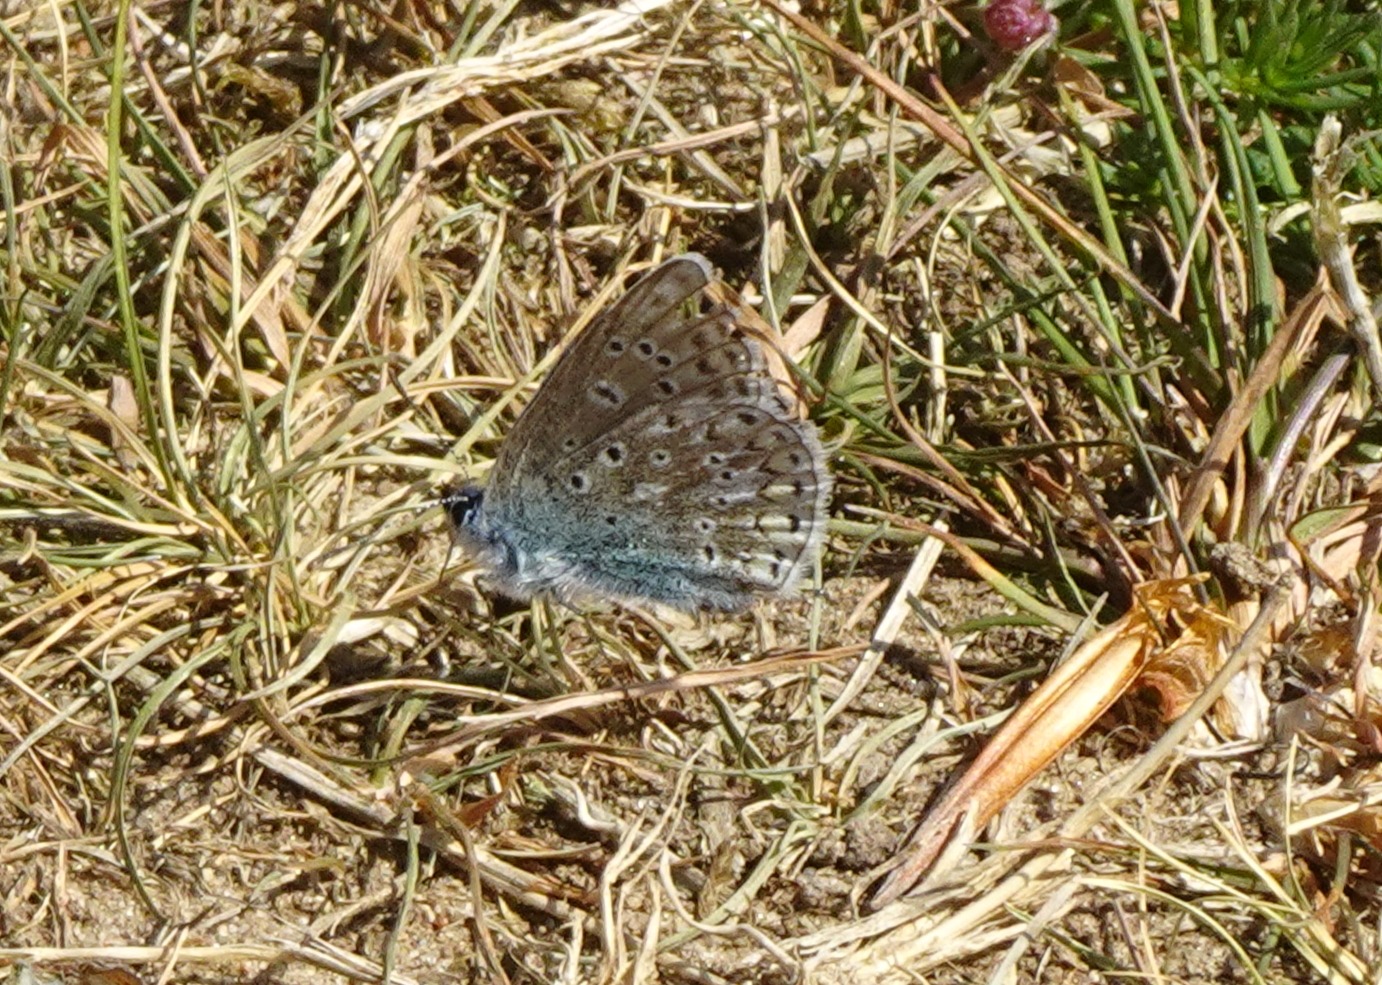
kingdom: Animalia
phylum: Arthropoda
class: Insecta
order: Lepidoptera
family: Lycaenidae
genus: Polyommatus
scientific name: Polyommatus icarus
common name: Almindelig blåfugl
